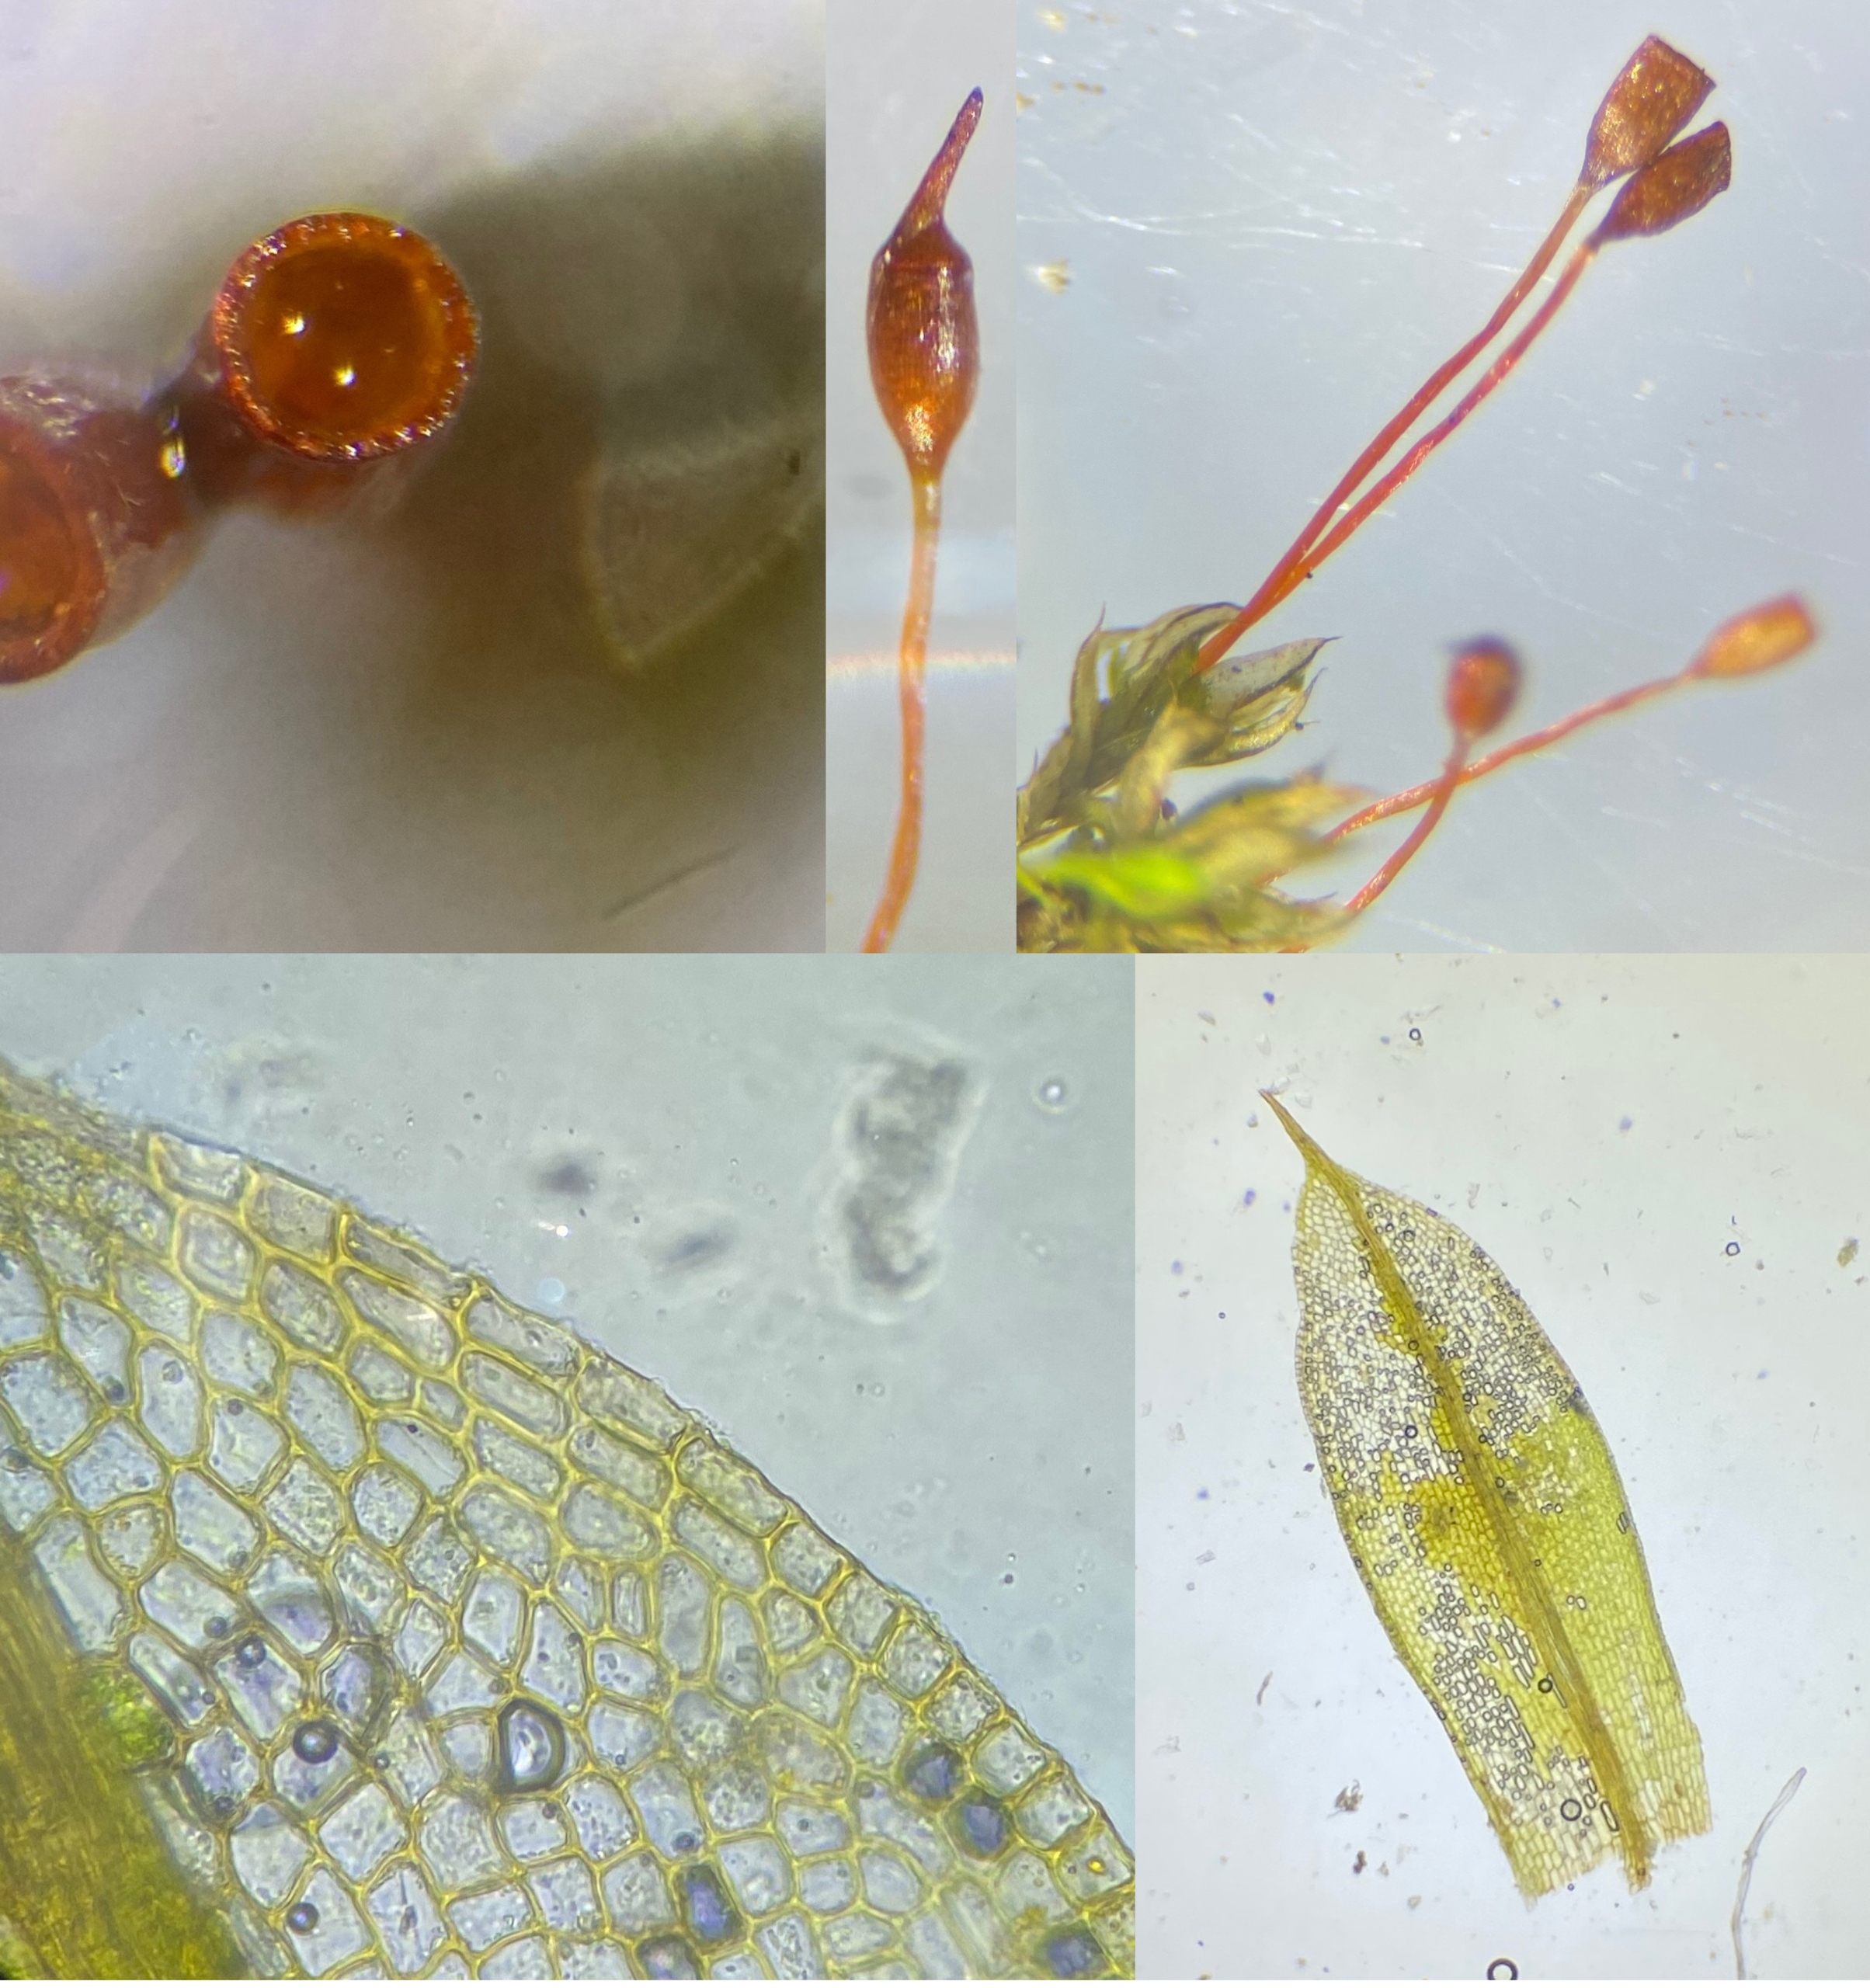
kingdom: Plantae
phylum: Bryophyta
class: Bryopsida
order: Pottiales
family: Pottiaceae
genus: Tortula
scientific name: Tortula caucasica
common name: Mark-bægermos
